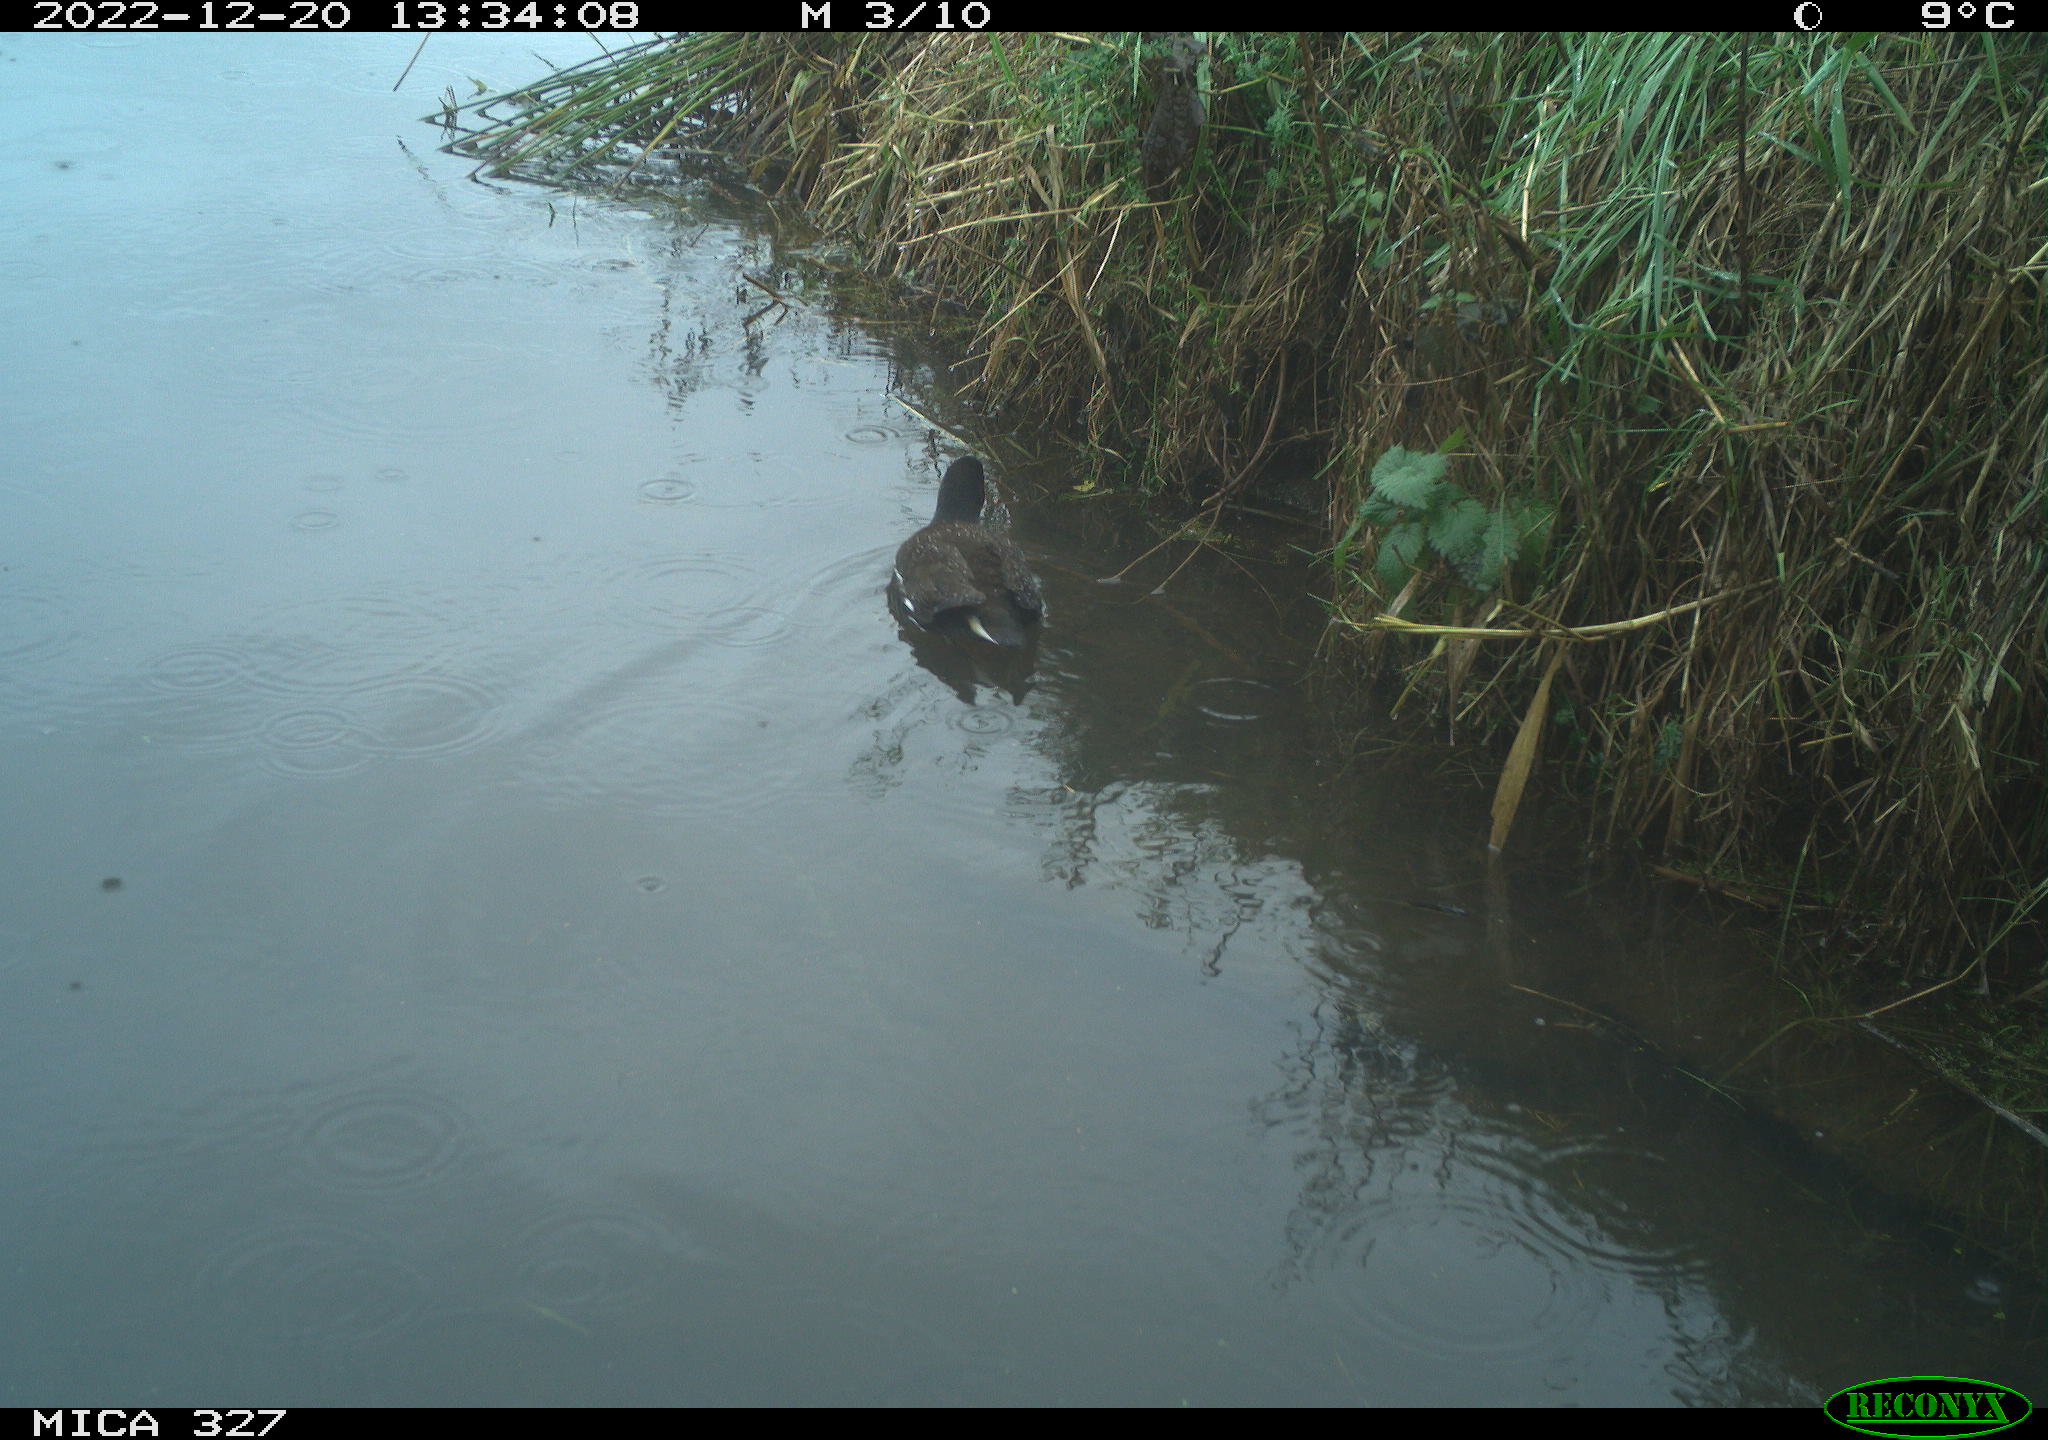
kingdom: Animalia
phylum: Chordata
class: Aves
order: Gruiformes
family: Rallidae
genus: Gallinula
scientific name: Gallinula chloropus
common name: Common moorhen
